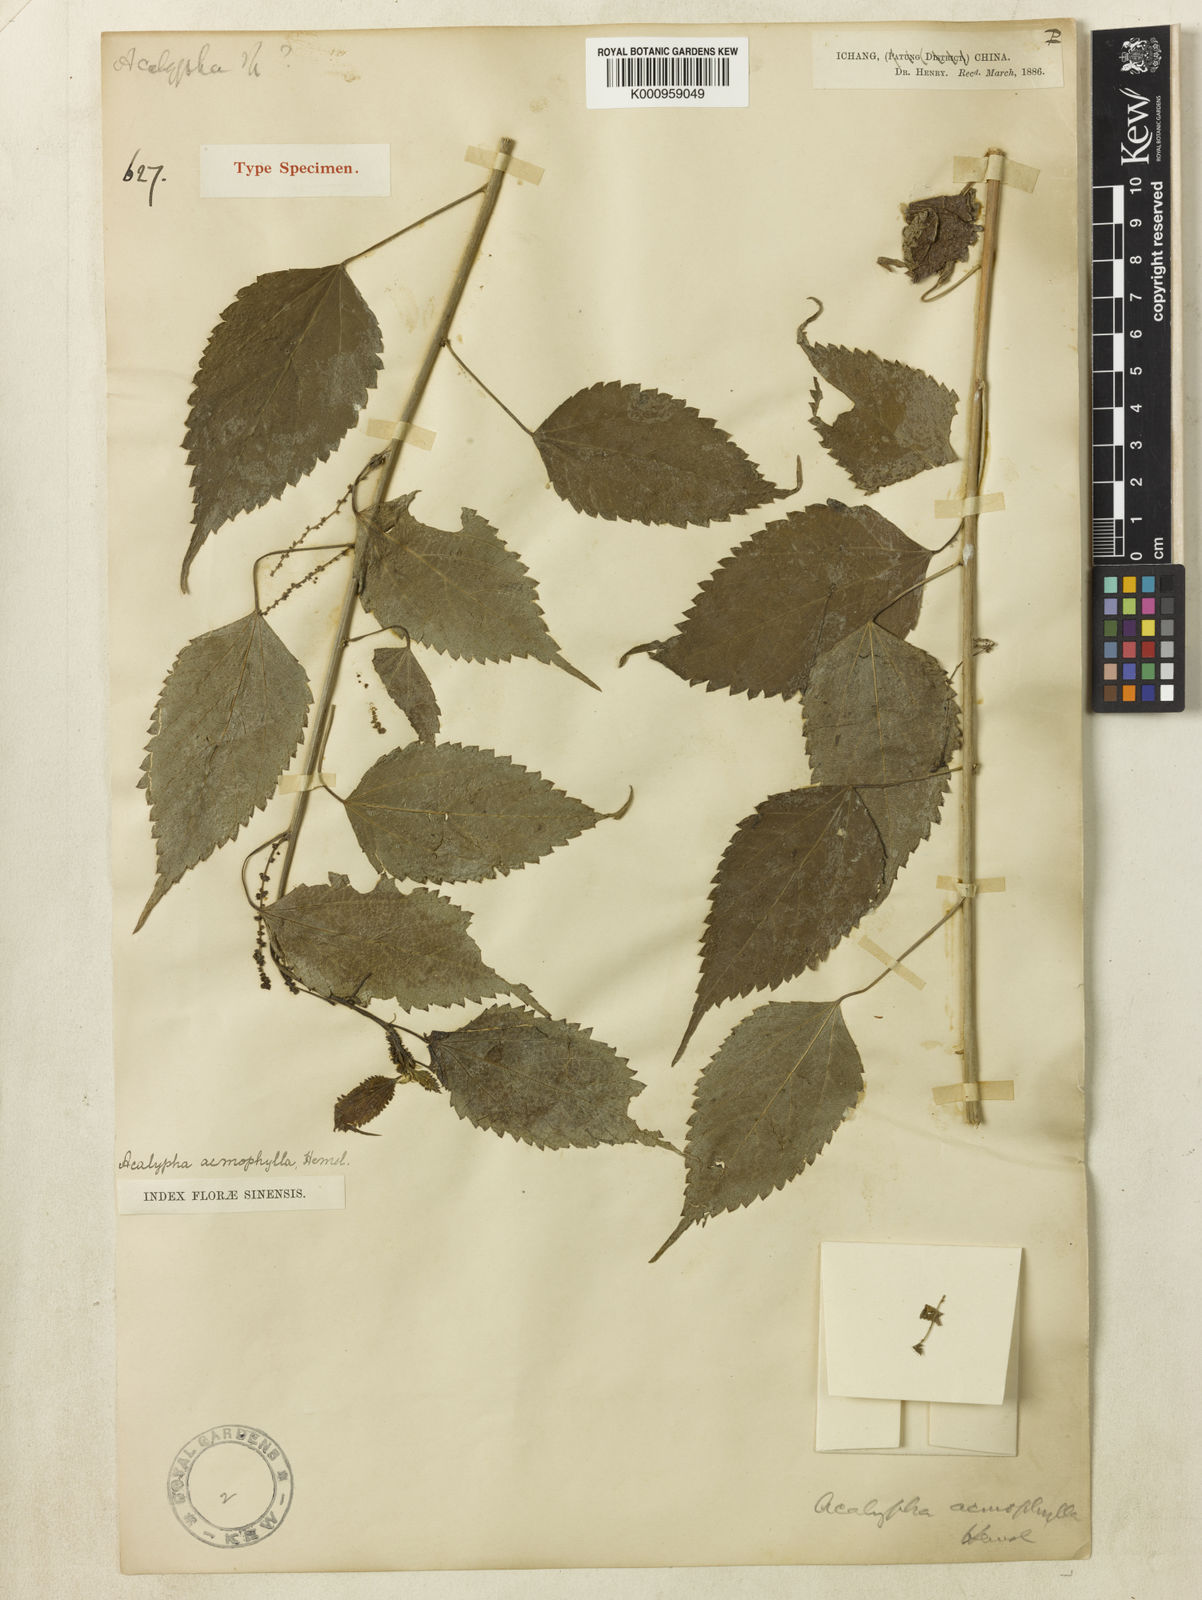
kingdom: Plantae
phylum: Tracheophyta
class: Magnoliopsida
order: Malpighiales
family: Euphorbiaceae
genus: Acalypha
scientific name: Acalypha acmophylla
